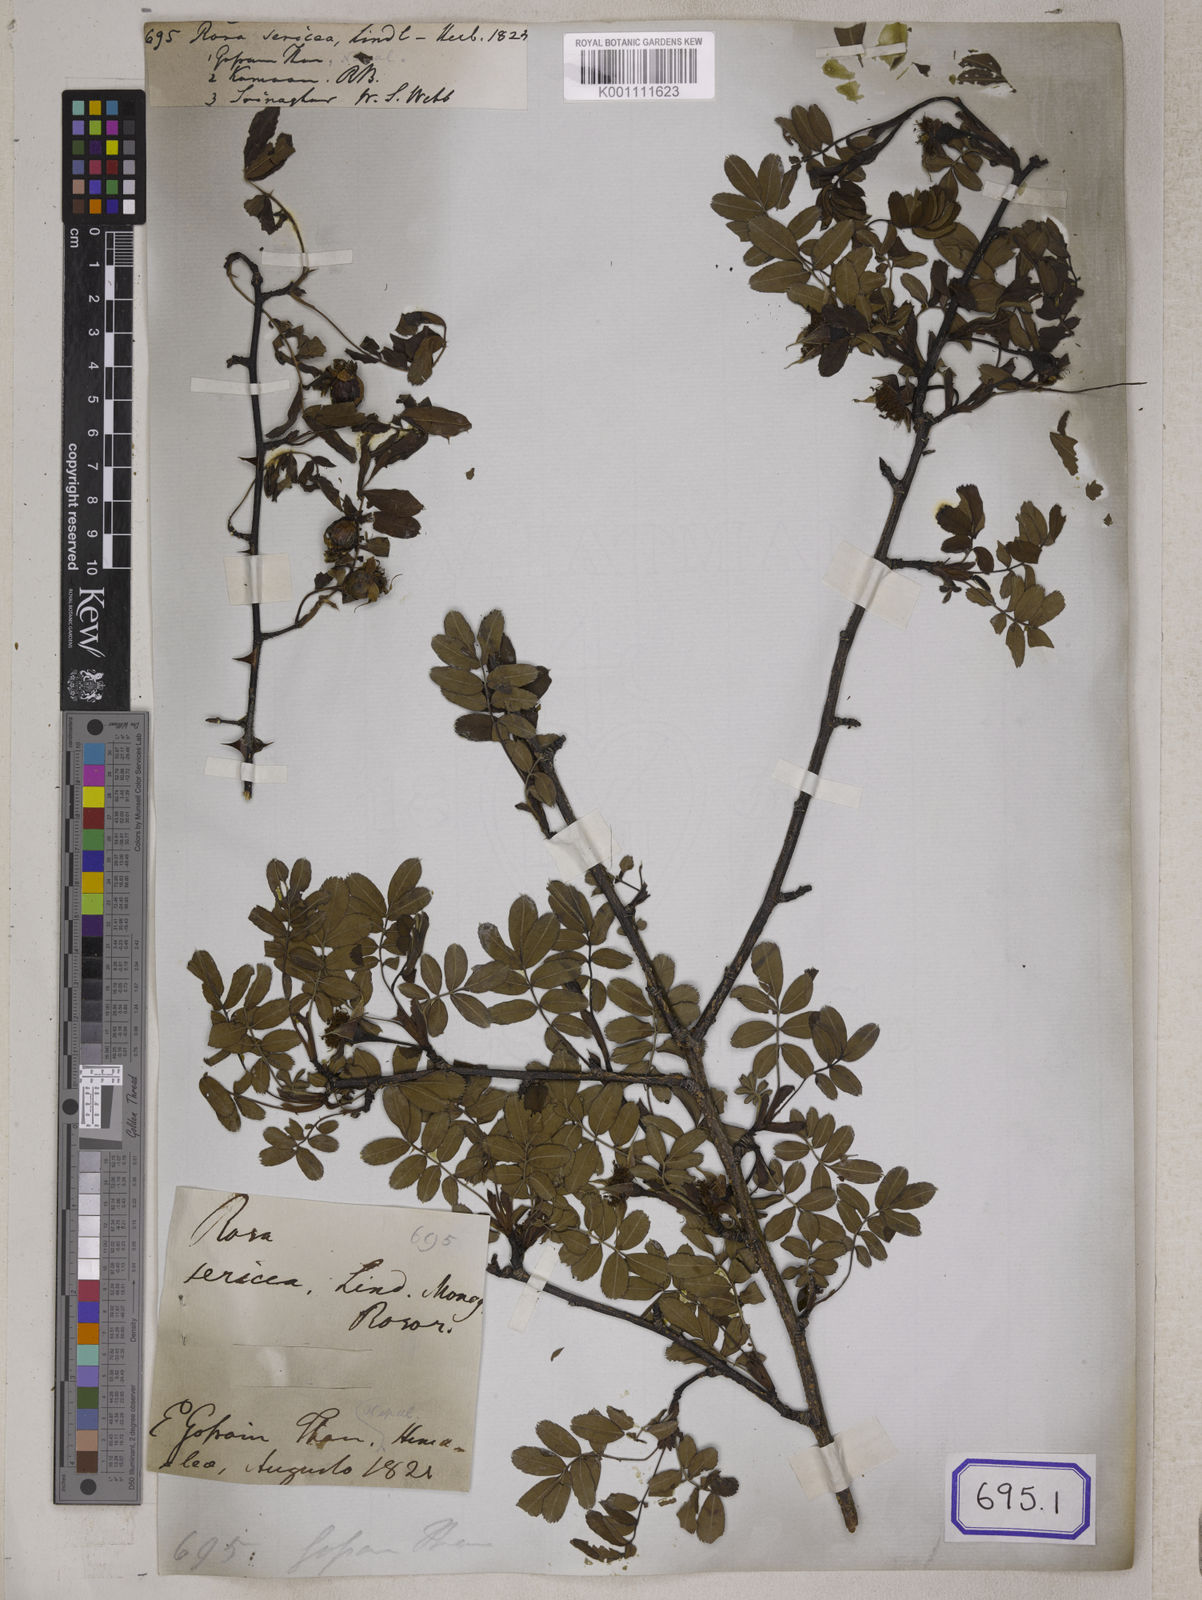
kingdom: Plantae
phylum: Tracheophyta
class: Magnoliopsida
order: Rosales
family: Rosaceae
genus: Rosa
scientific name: Rosa sericea
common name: Silky rose
